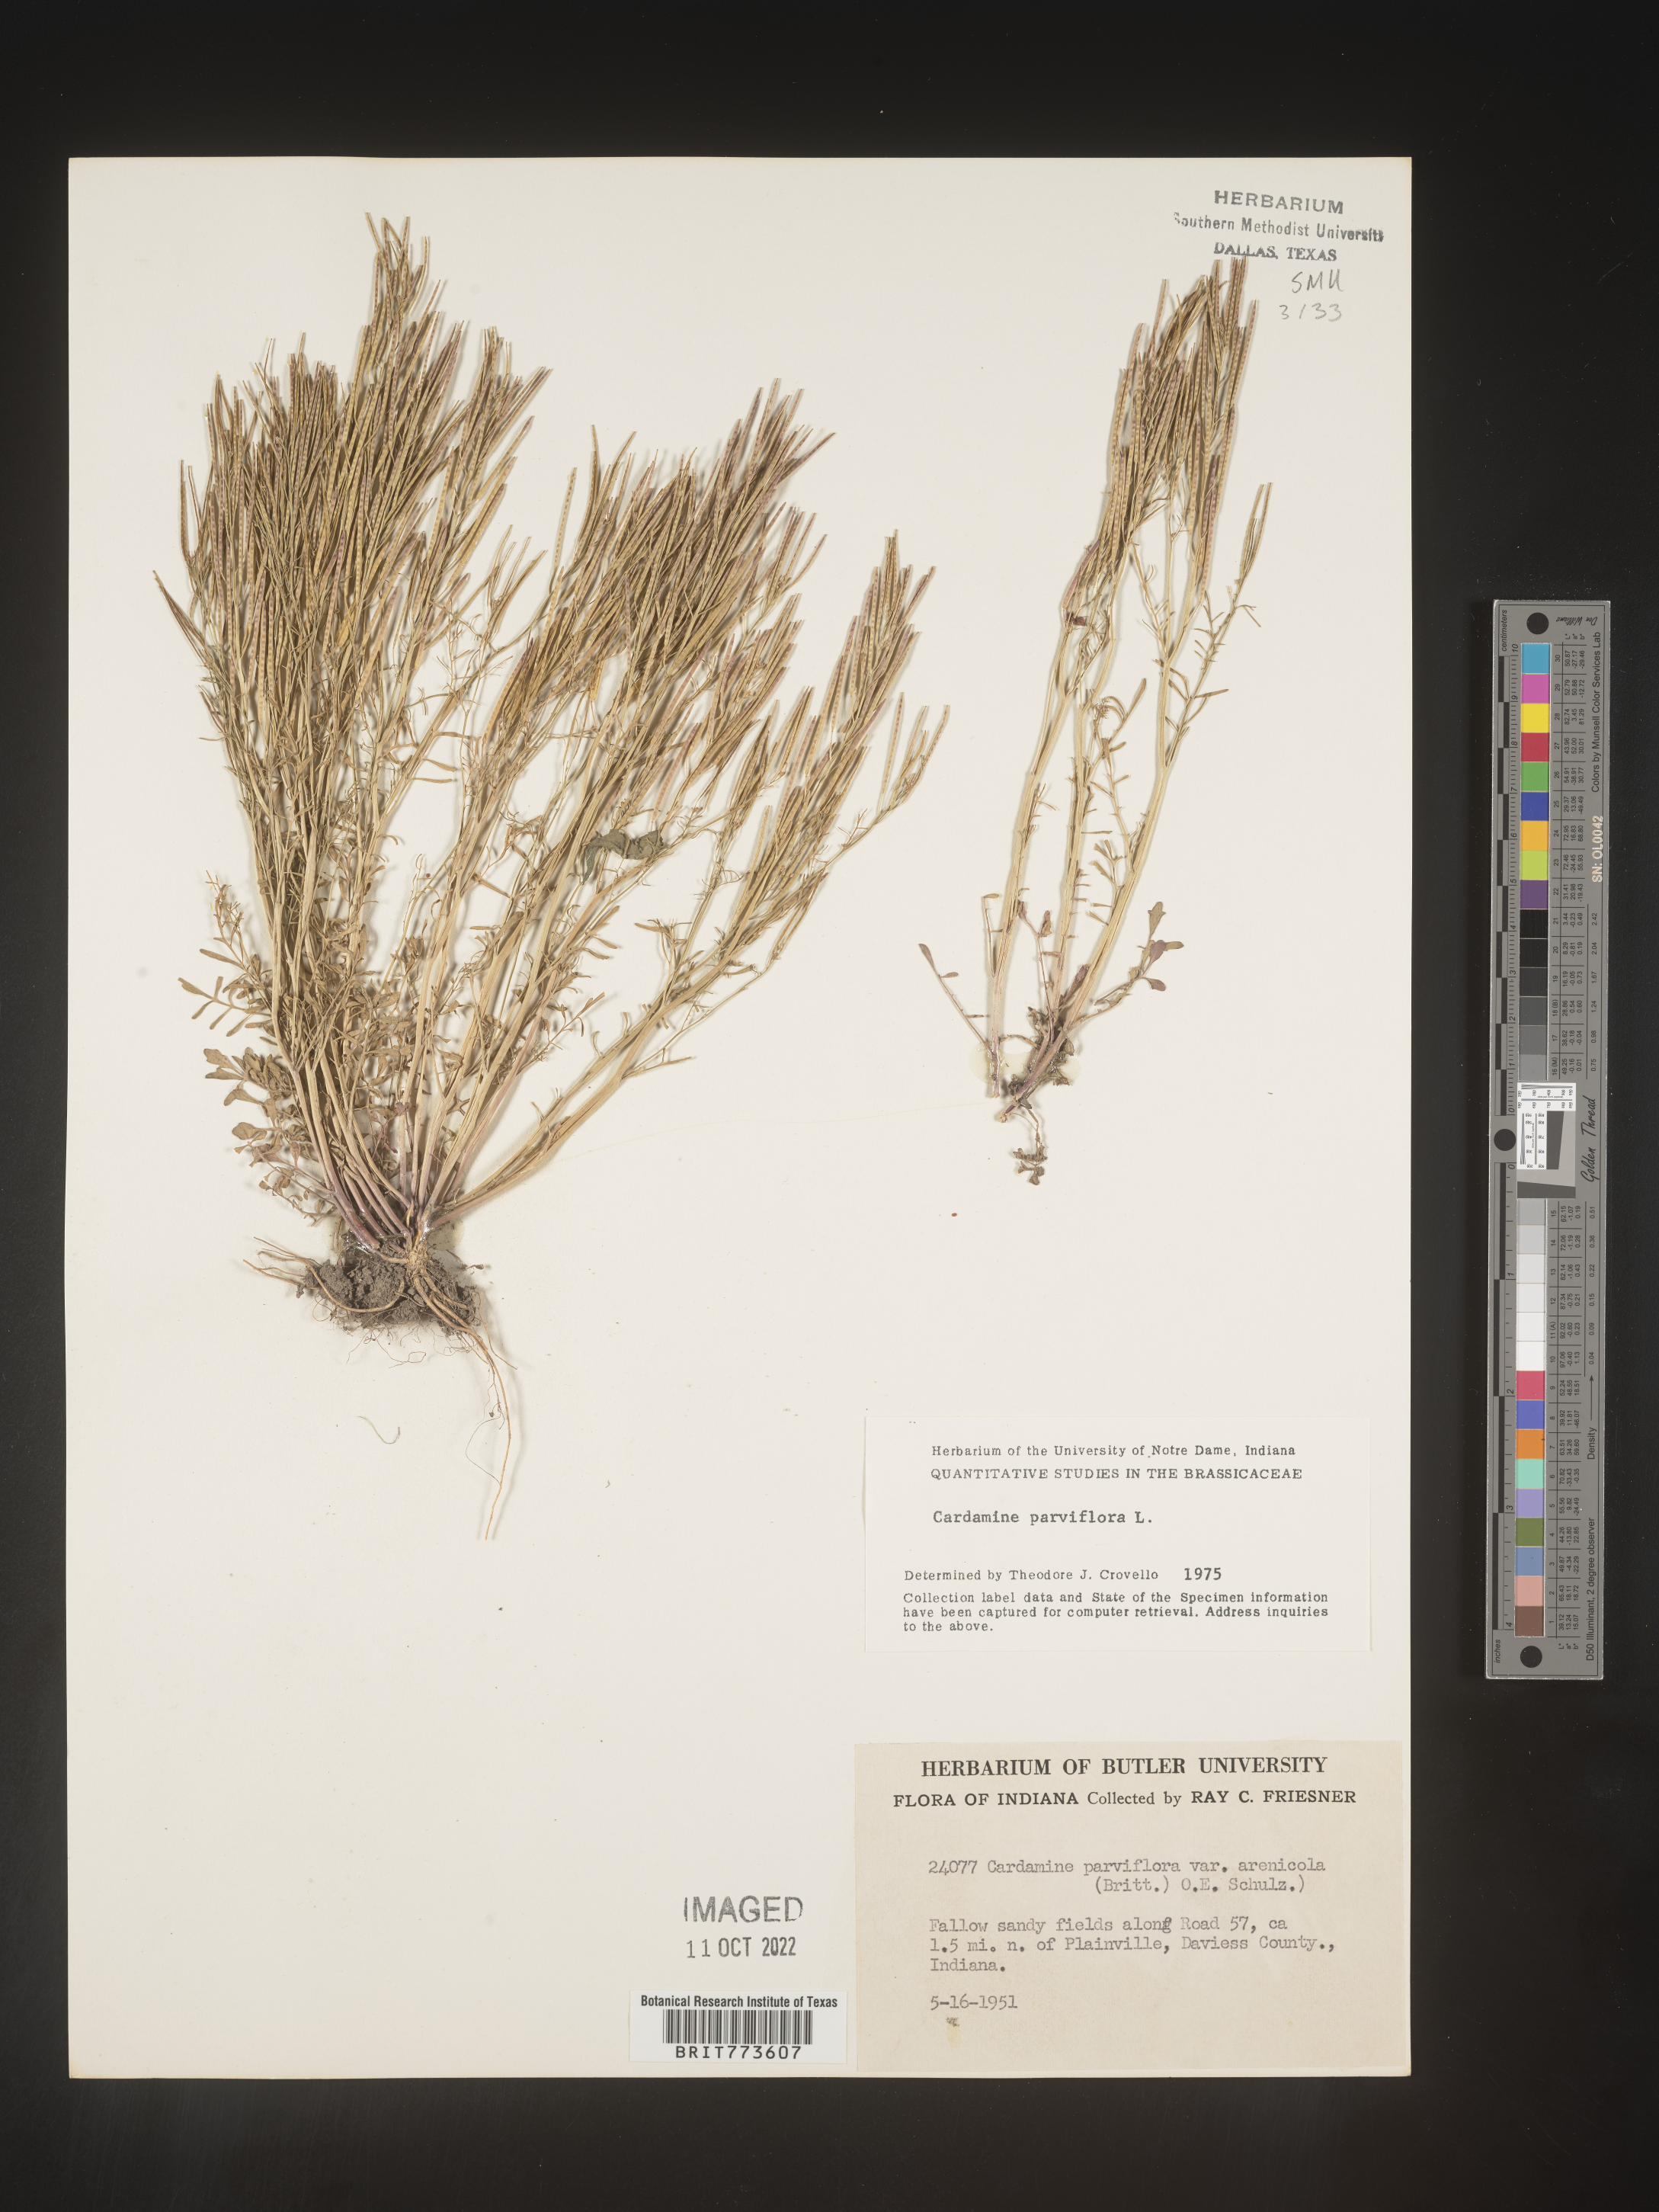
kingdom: Plantae
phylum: Tracheophyta
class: Magnoliopsida
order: Brassicales
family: Brassicaceae
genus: Cardamine
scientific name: Cardamine parviflora
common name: Sand bittercress
